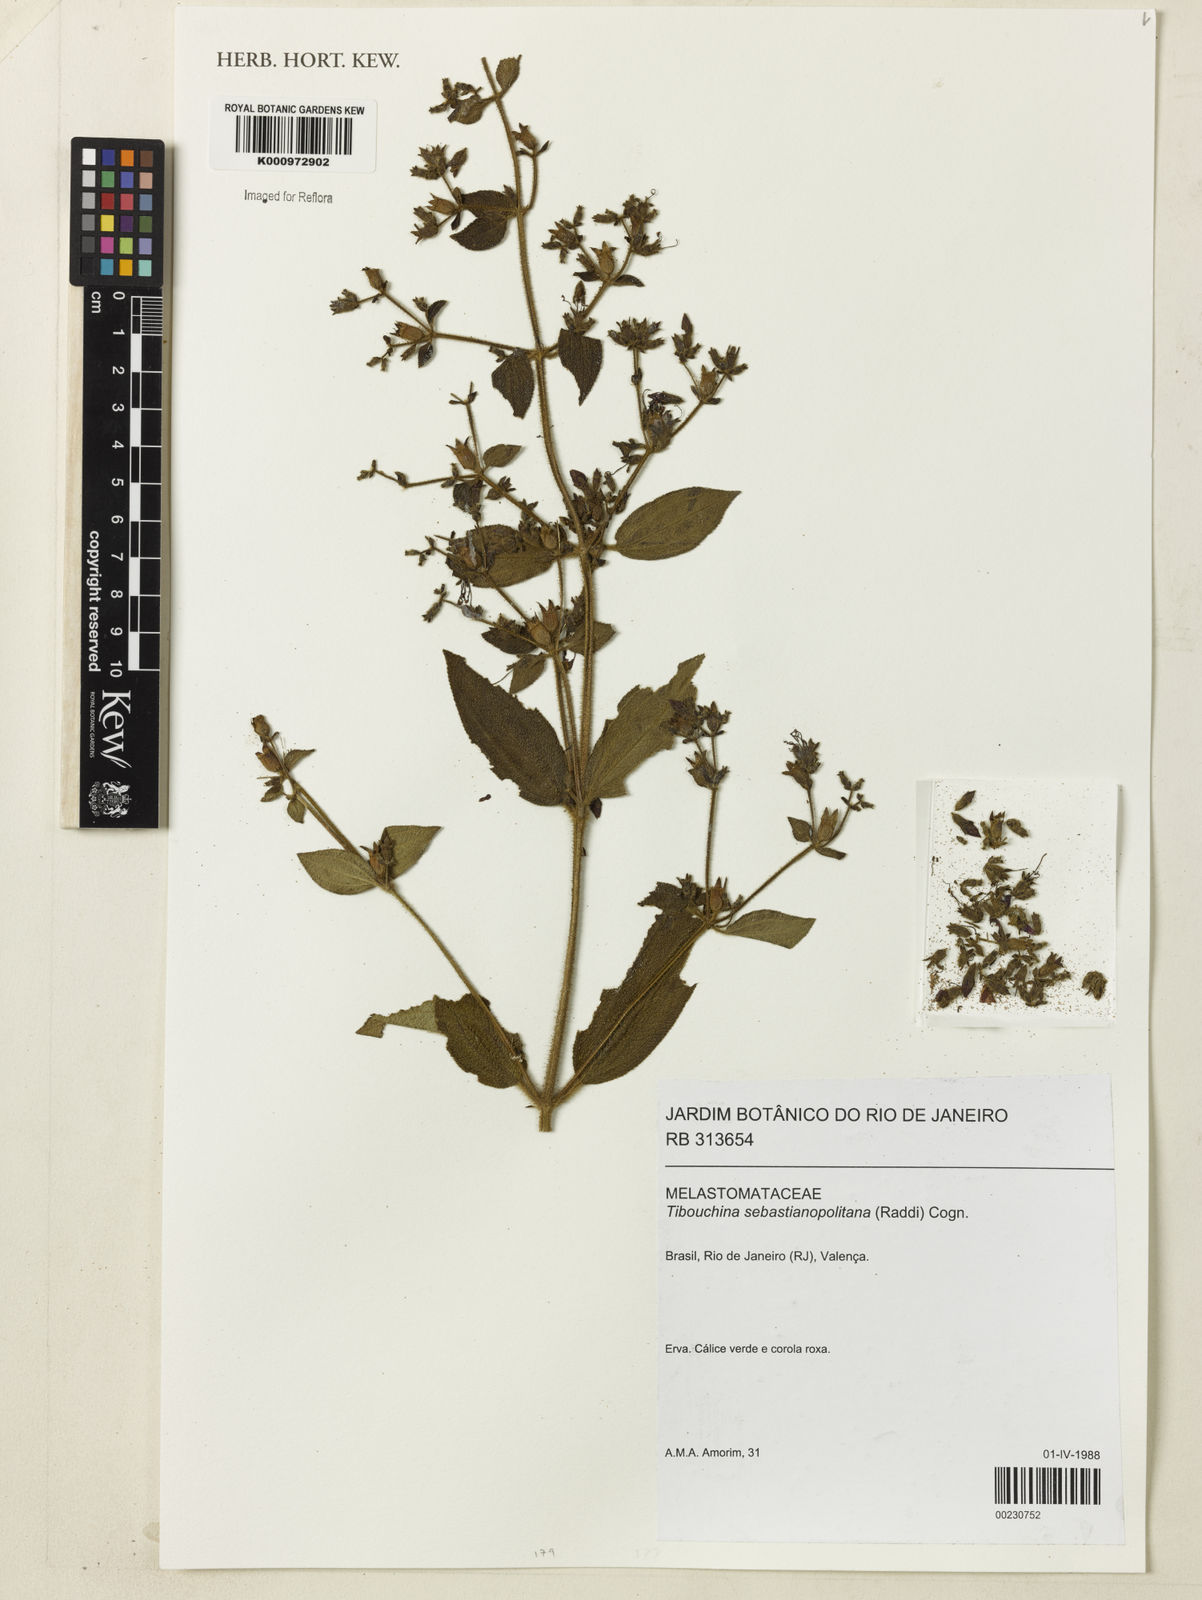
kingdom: Plantae
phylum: Tracheophyta
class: Magnoliopsida
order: Myrtales
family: Melastomataceae
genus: Chaetogastra
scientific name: Chaetogastra sebastianopolitana
